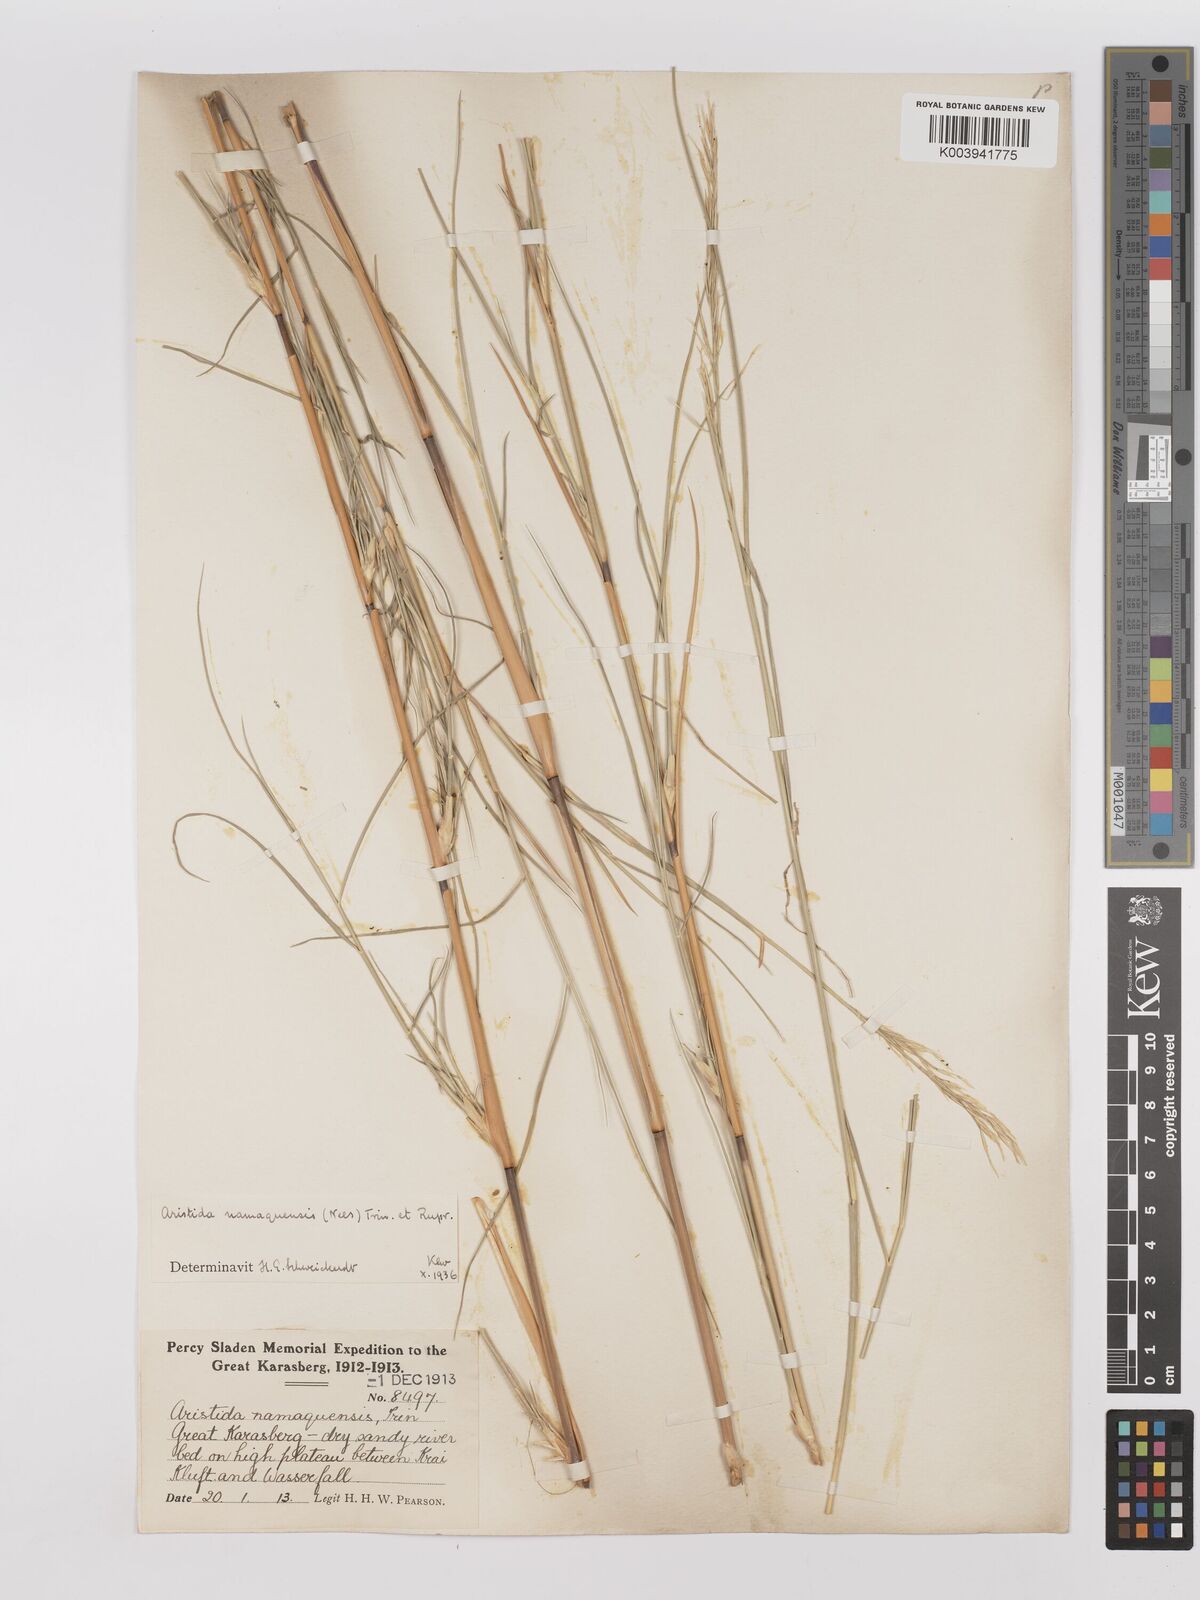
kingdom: Plantae
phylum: Tracheophyta
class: Liliopsida
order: Poales
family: Poaceae
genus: Stipagrostis
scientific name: Stipagrostis namaquensis
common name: River bushman grass
